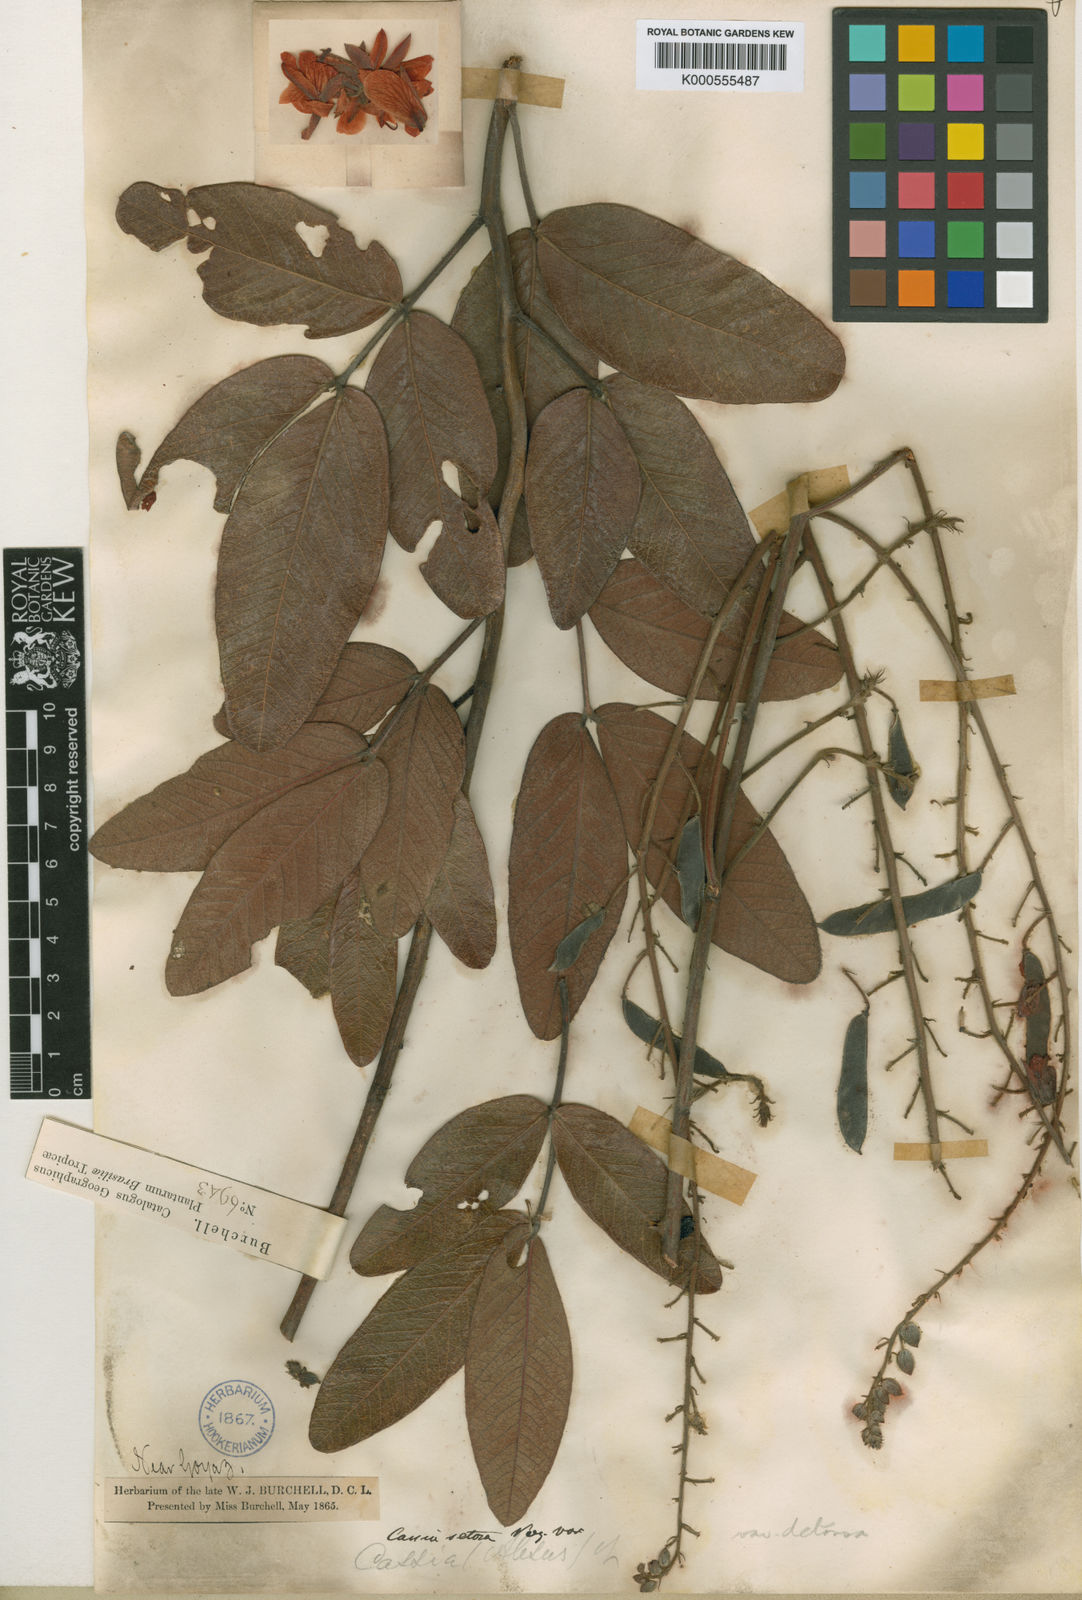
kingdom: Plantae
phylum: Tracheophyta
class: Magnoliopsida
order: Fabales
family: Fabaceae
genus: Chamaecrista
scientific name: Chamaecrista setosa
